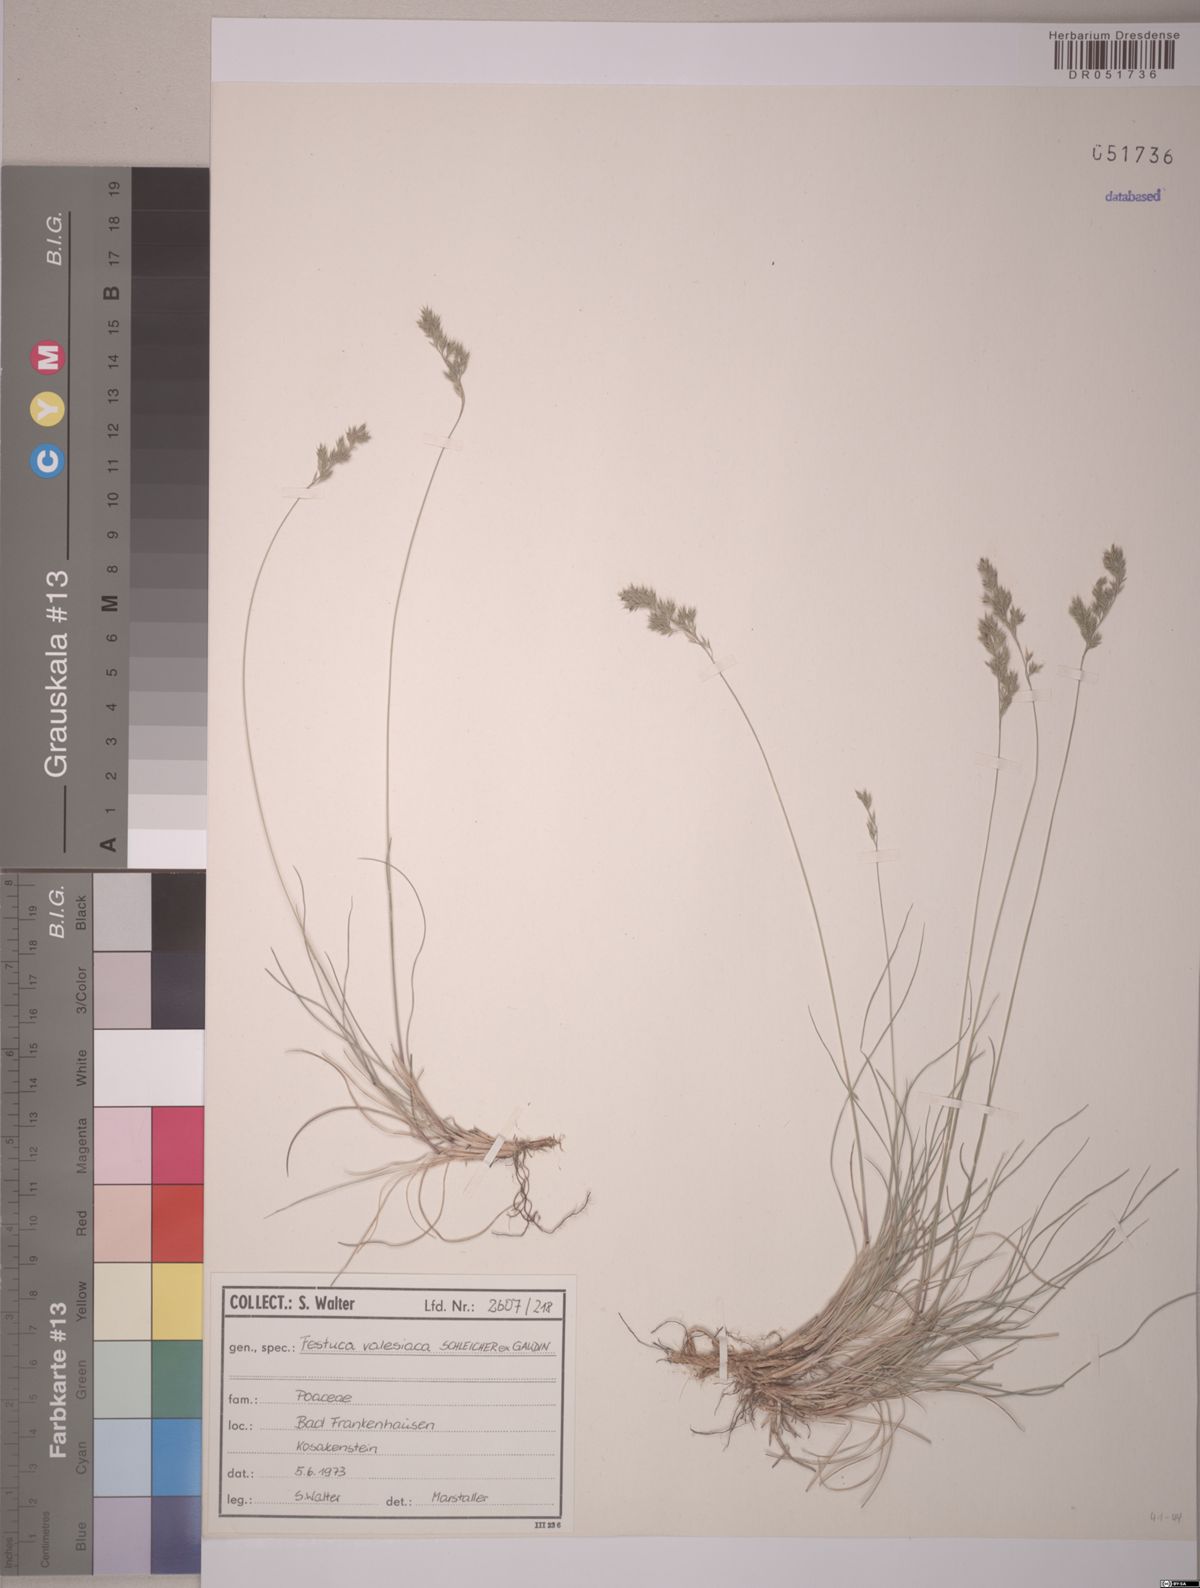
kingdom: Plantae
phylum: Tracheophyta
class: Liliopsida
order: Poales
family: Poaceae
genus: Festuca
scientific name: Festuca valesiaca
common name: Volga fescue
